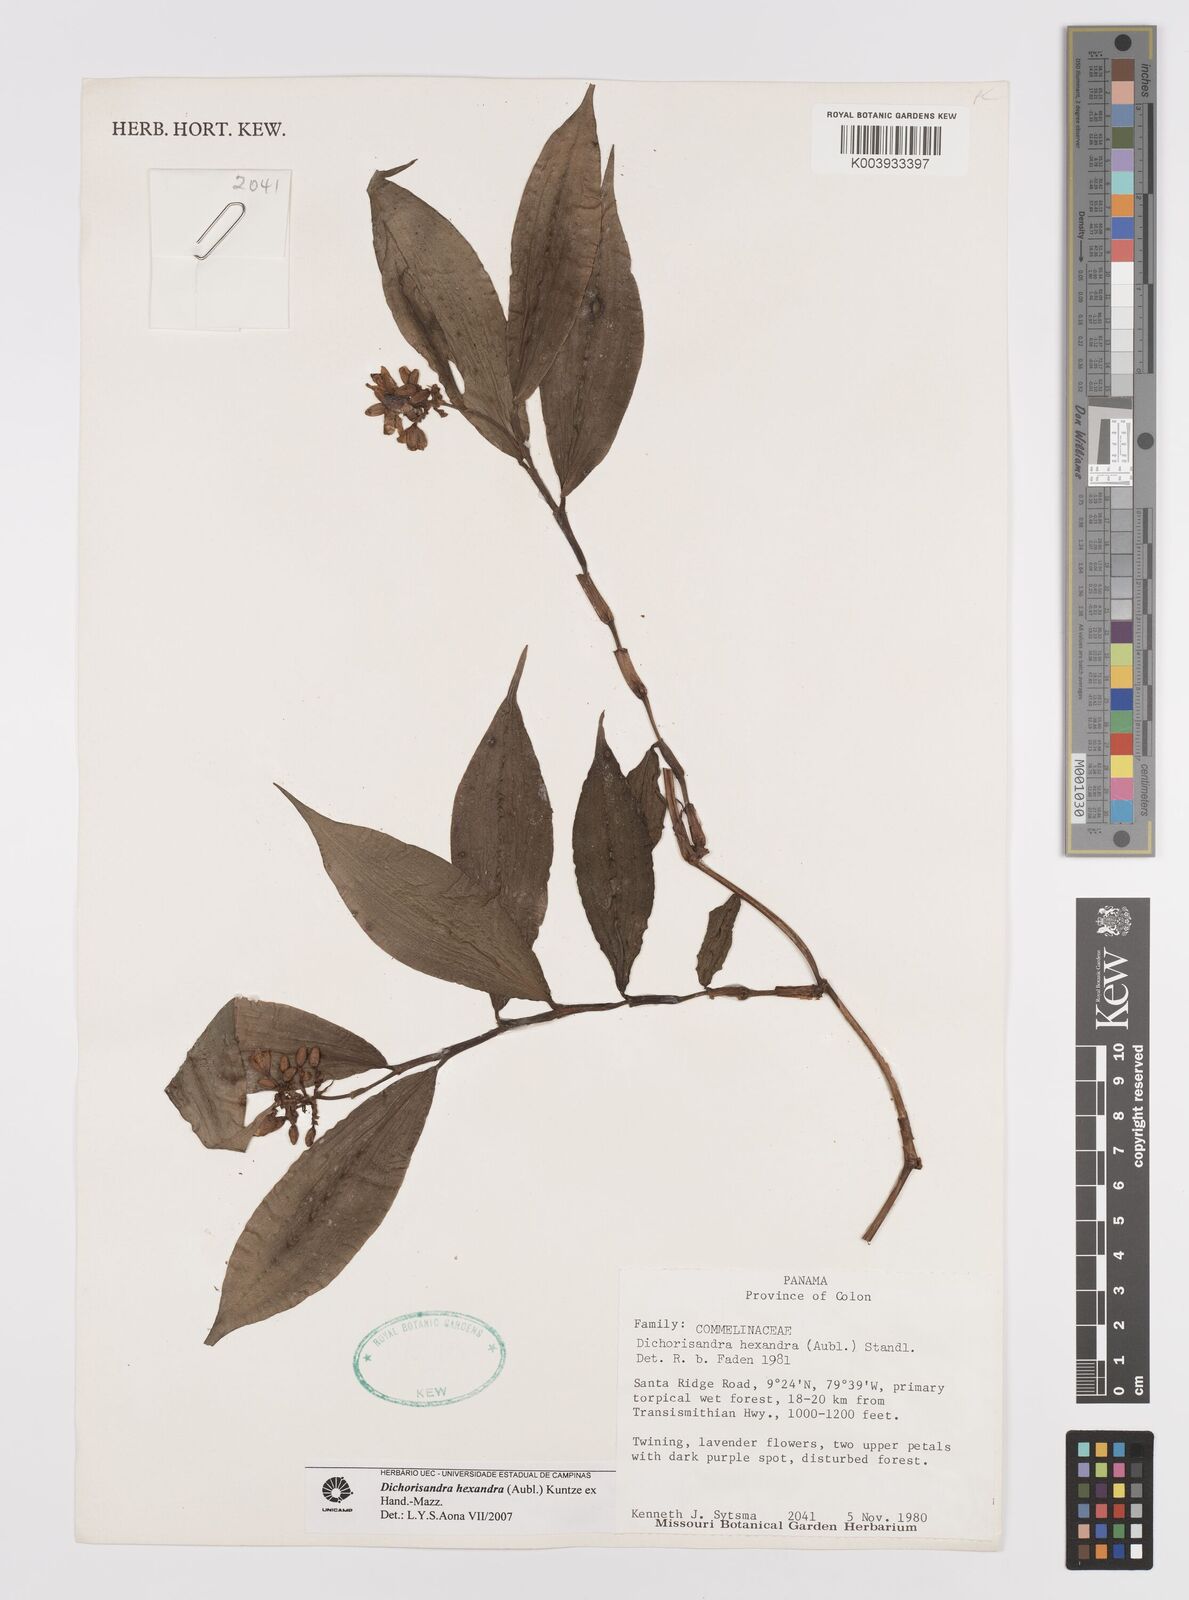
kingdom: Plantae
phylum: Tracheophyta
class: Liliopsida
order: Commelinales
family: Commelinaceae
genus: Dichorisandra
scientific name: Dichorisandra hexandra
